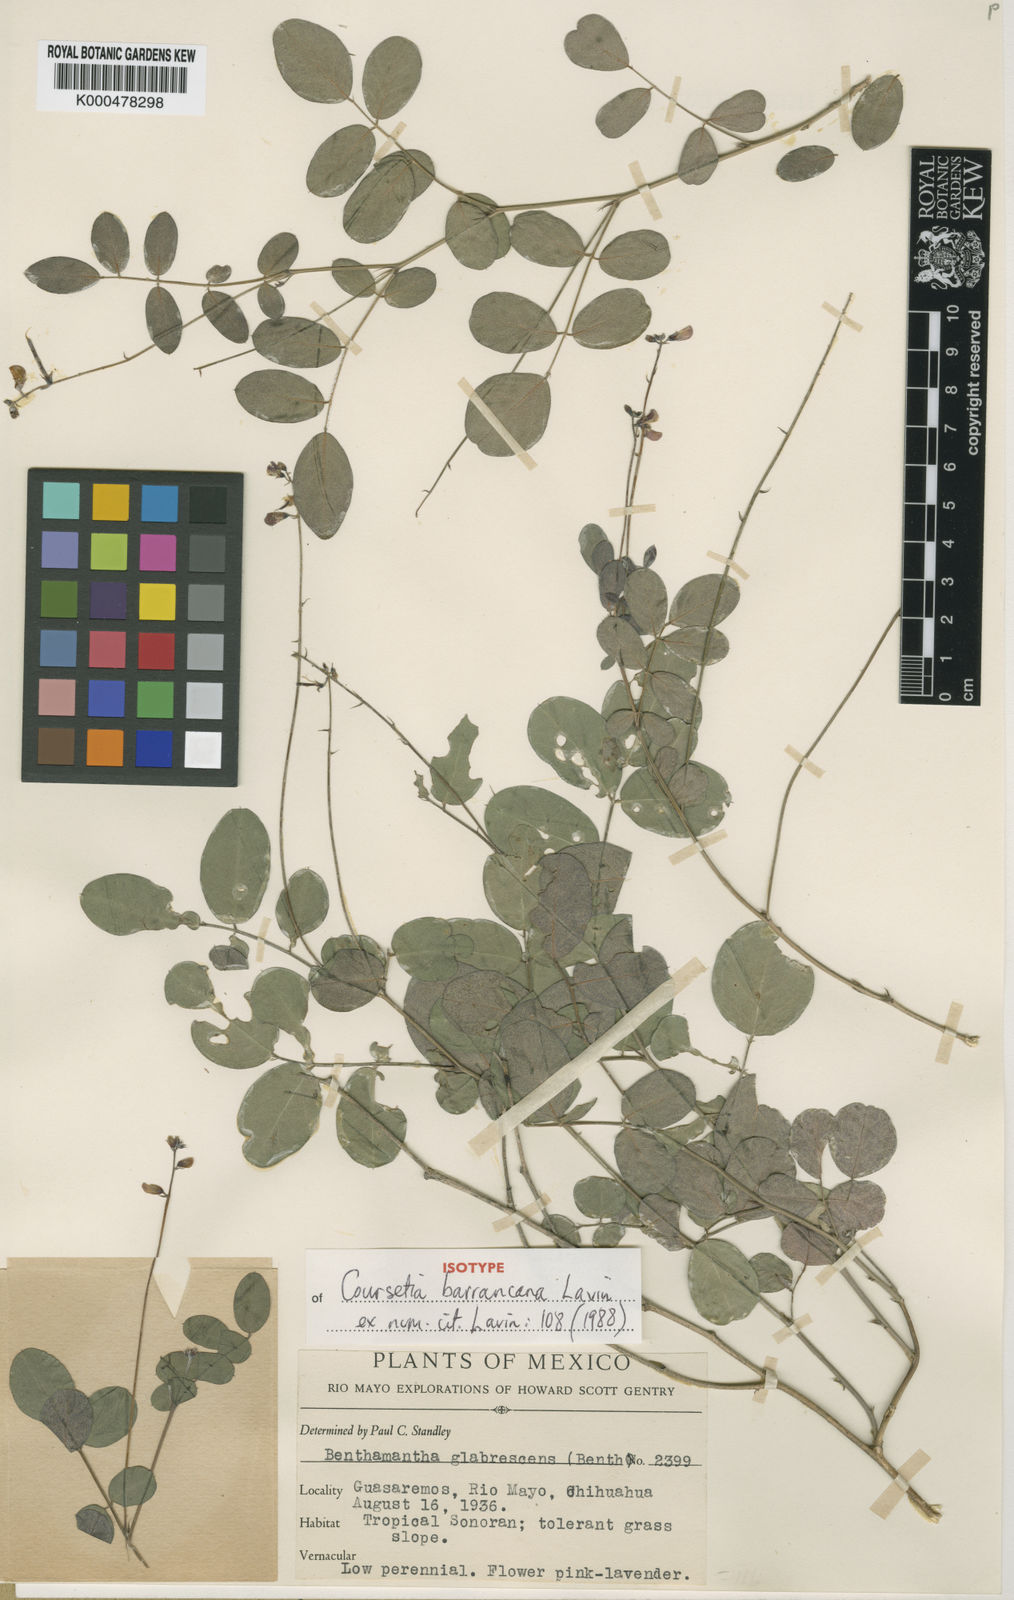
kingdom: Plantae
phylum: Tracheophyta
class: Magnoliopsida
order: Fabales
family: Fabaceae
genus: Coursetia
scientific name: Coursetia barrancana
